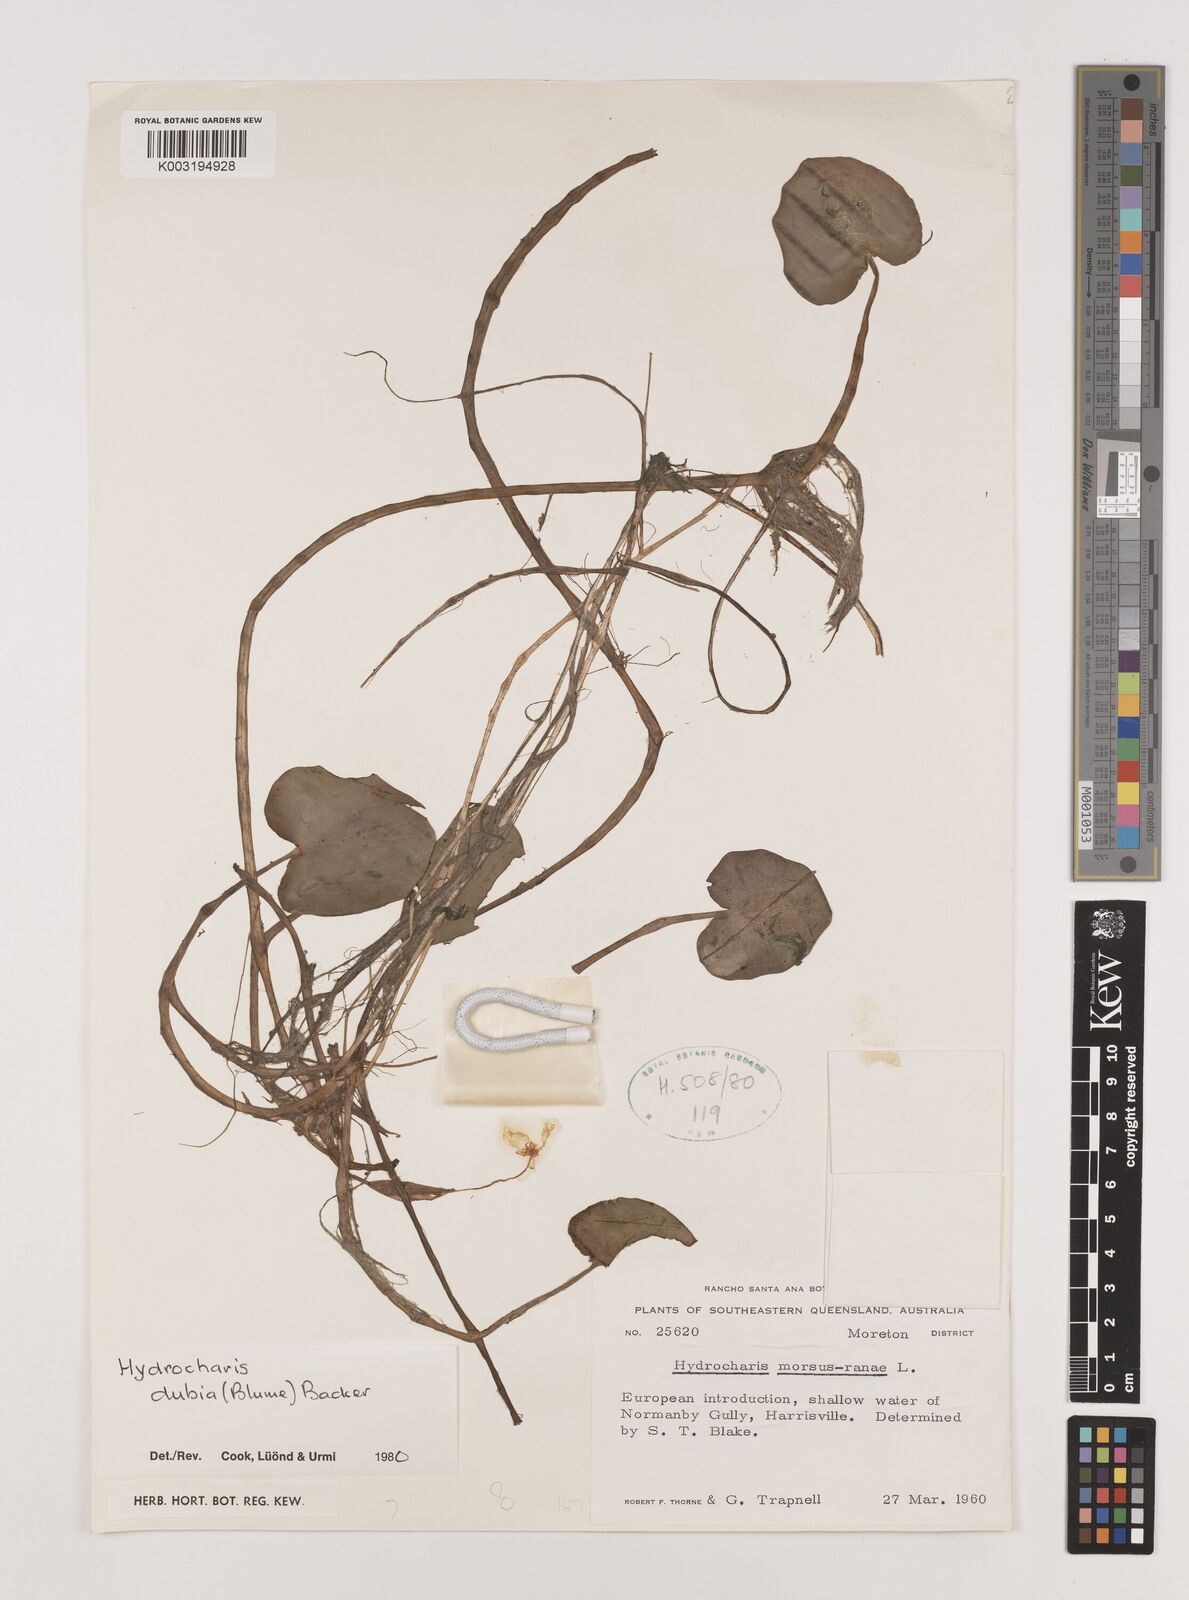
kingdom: Plantae
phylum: Tracheophyta
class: Liliopsida
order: Alismatales
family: Hydrocharitaceae
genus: Hydrocharis
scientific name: Hydrocharis dubia
